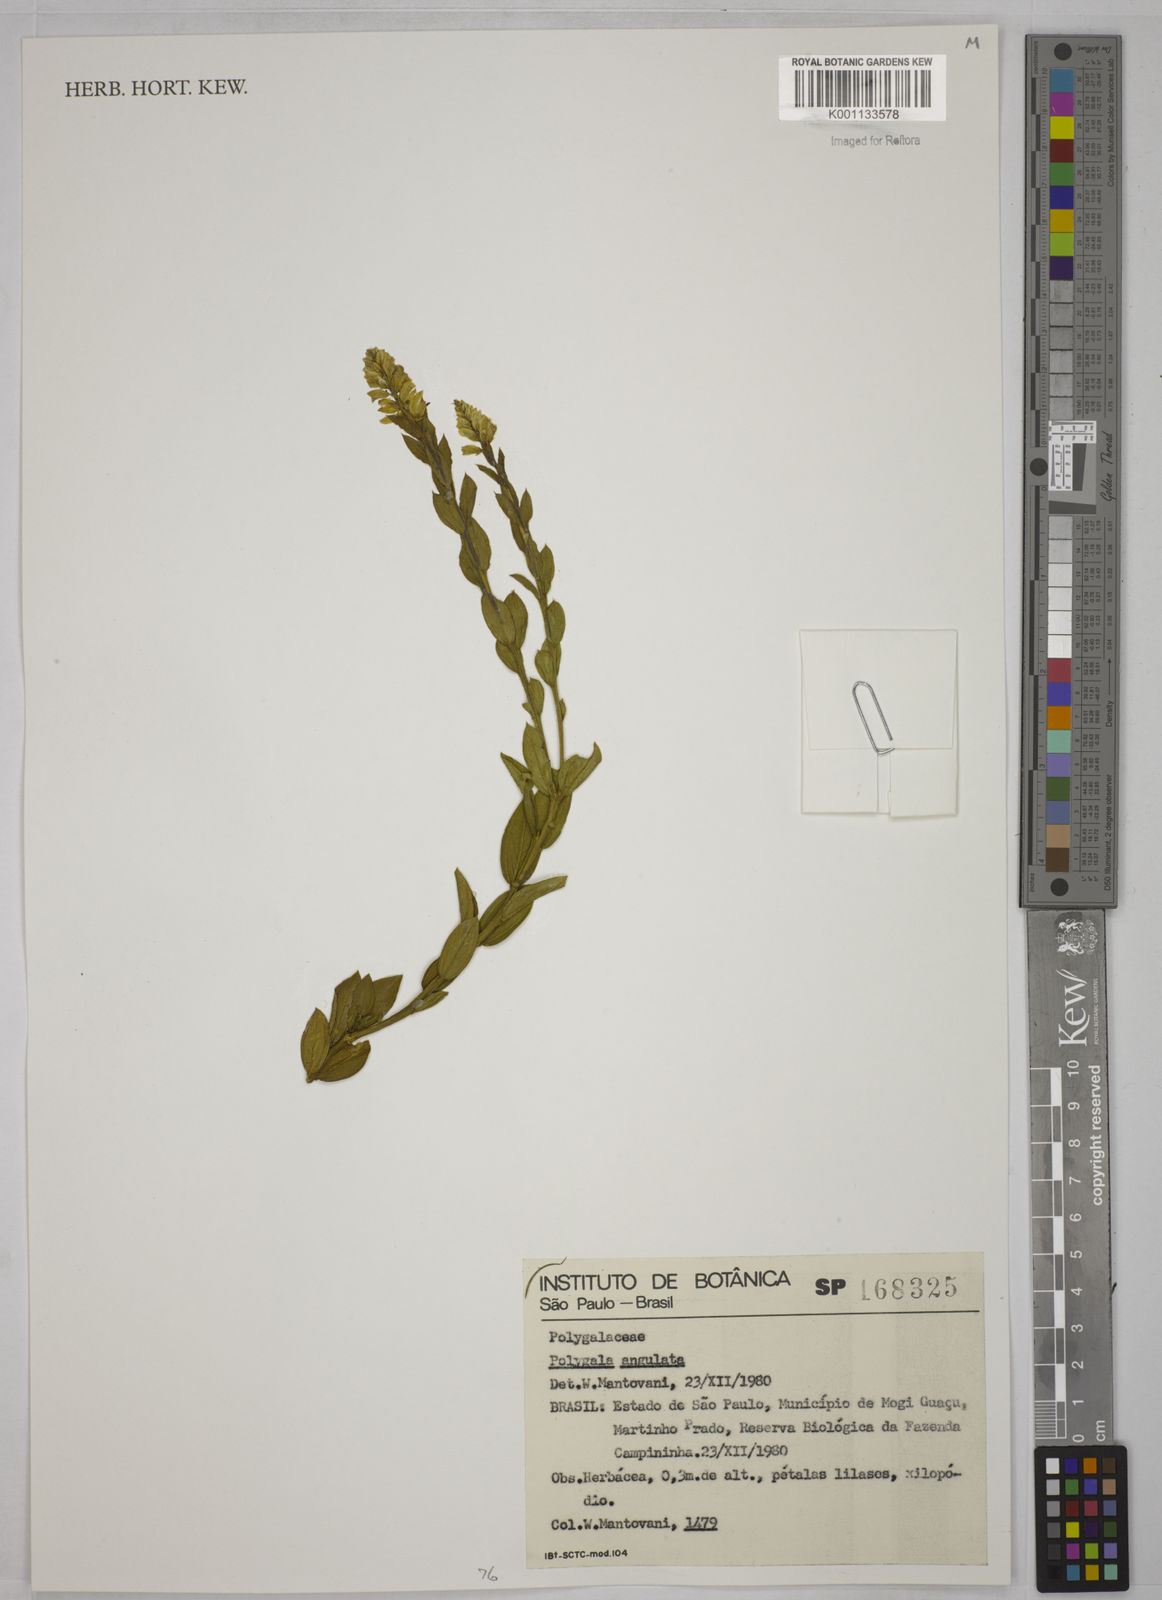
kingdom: Plantae
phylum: Tracheophyta
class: Magnoliopsida
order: Fabales
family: Polygalaceae
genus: Polygala
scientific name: Polygala poaya
